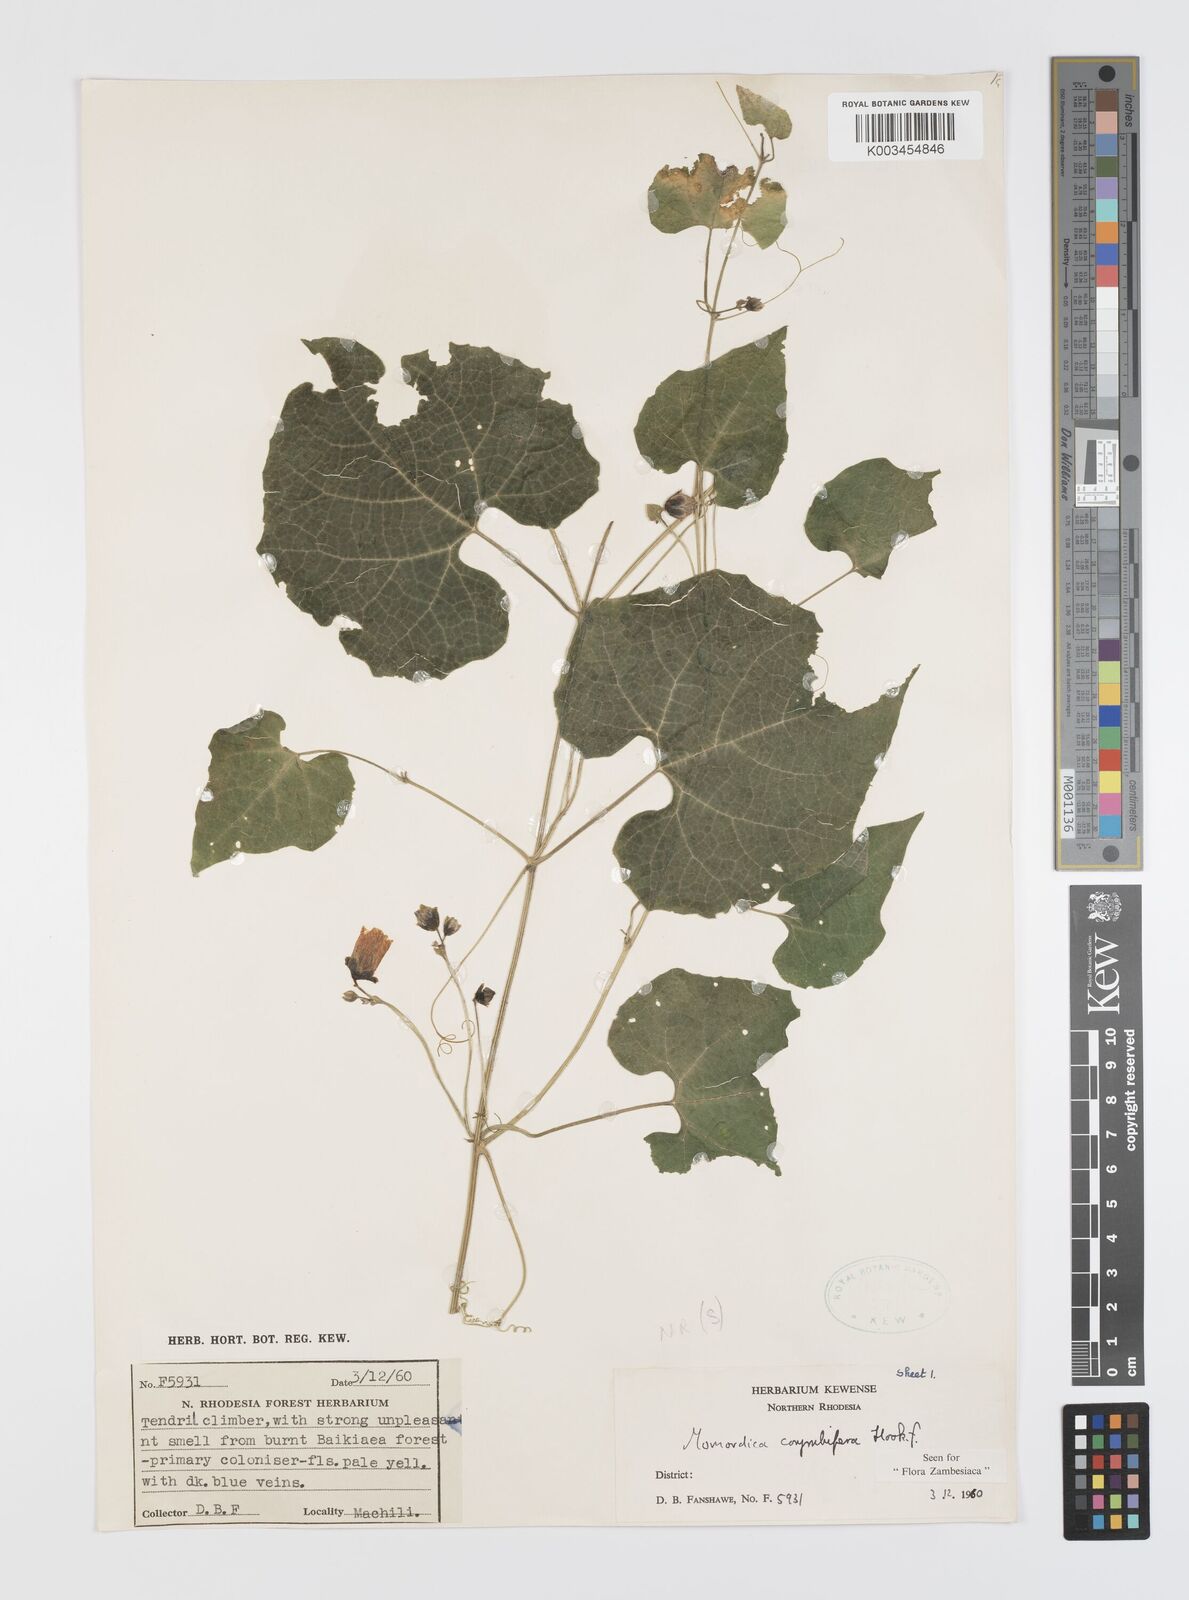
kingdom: Plantae
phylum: Tracheophyta
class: Magnoliopsida
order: Cucurbitales
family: Cucurbitaceae
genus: Momordica
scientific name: Momordica corymbifera
